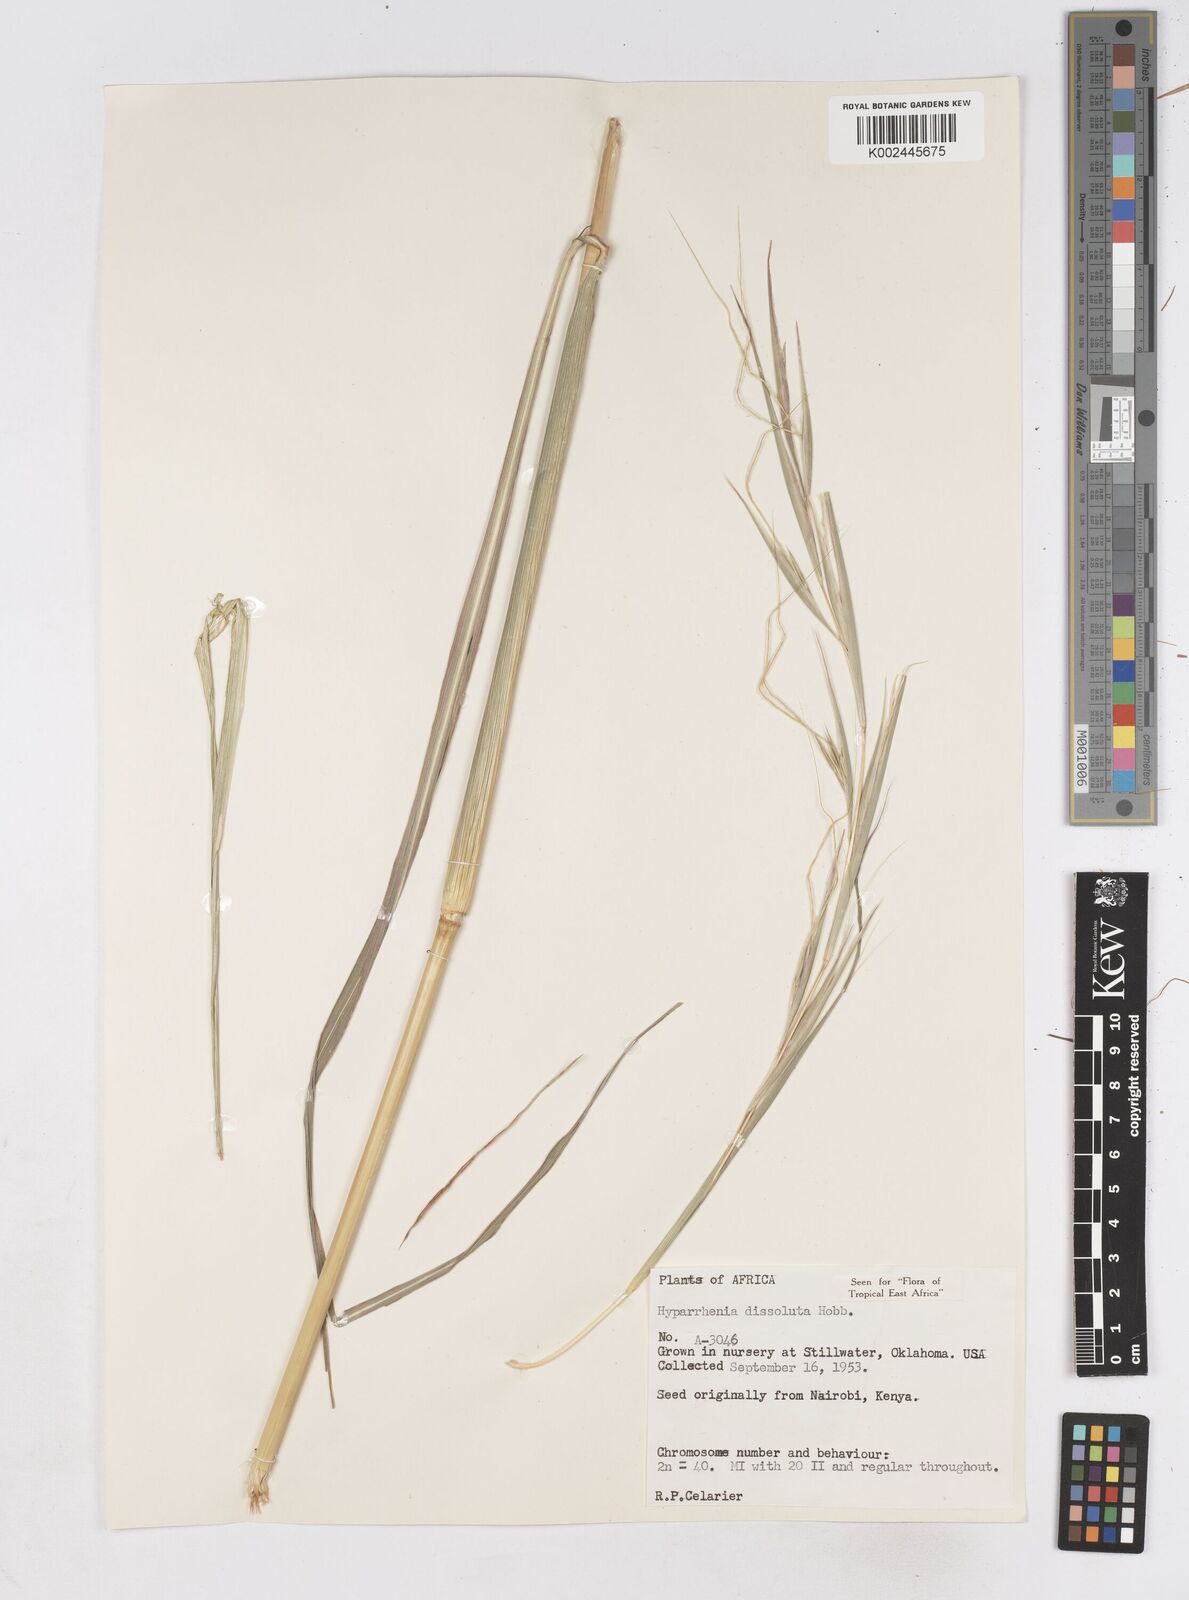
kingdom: Plantae
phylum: Tracheophyta
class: Liliopsida
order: Poales
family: Poaceae
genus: Hyperthelia
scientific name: Hyperthelia dissoluta
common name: Yellow thatching grass
